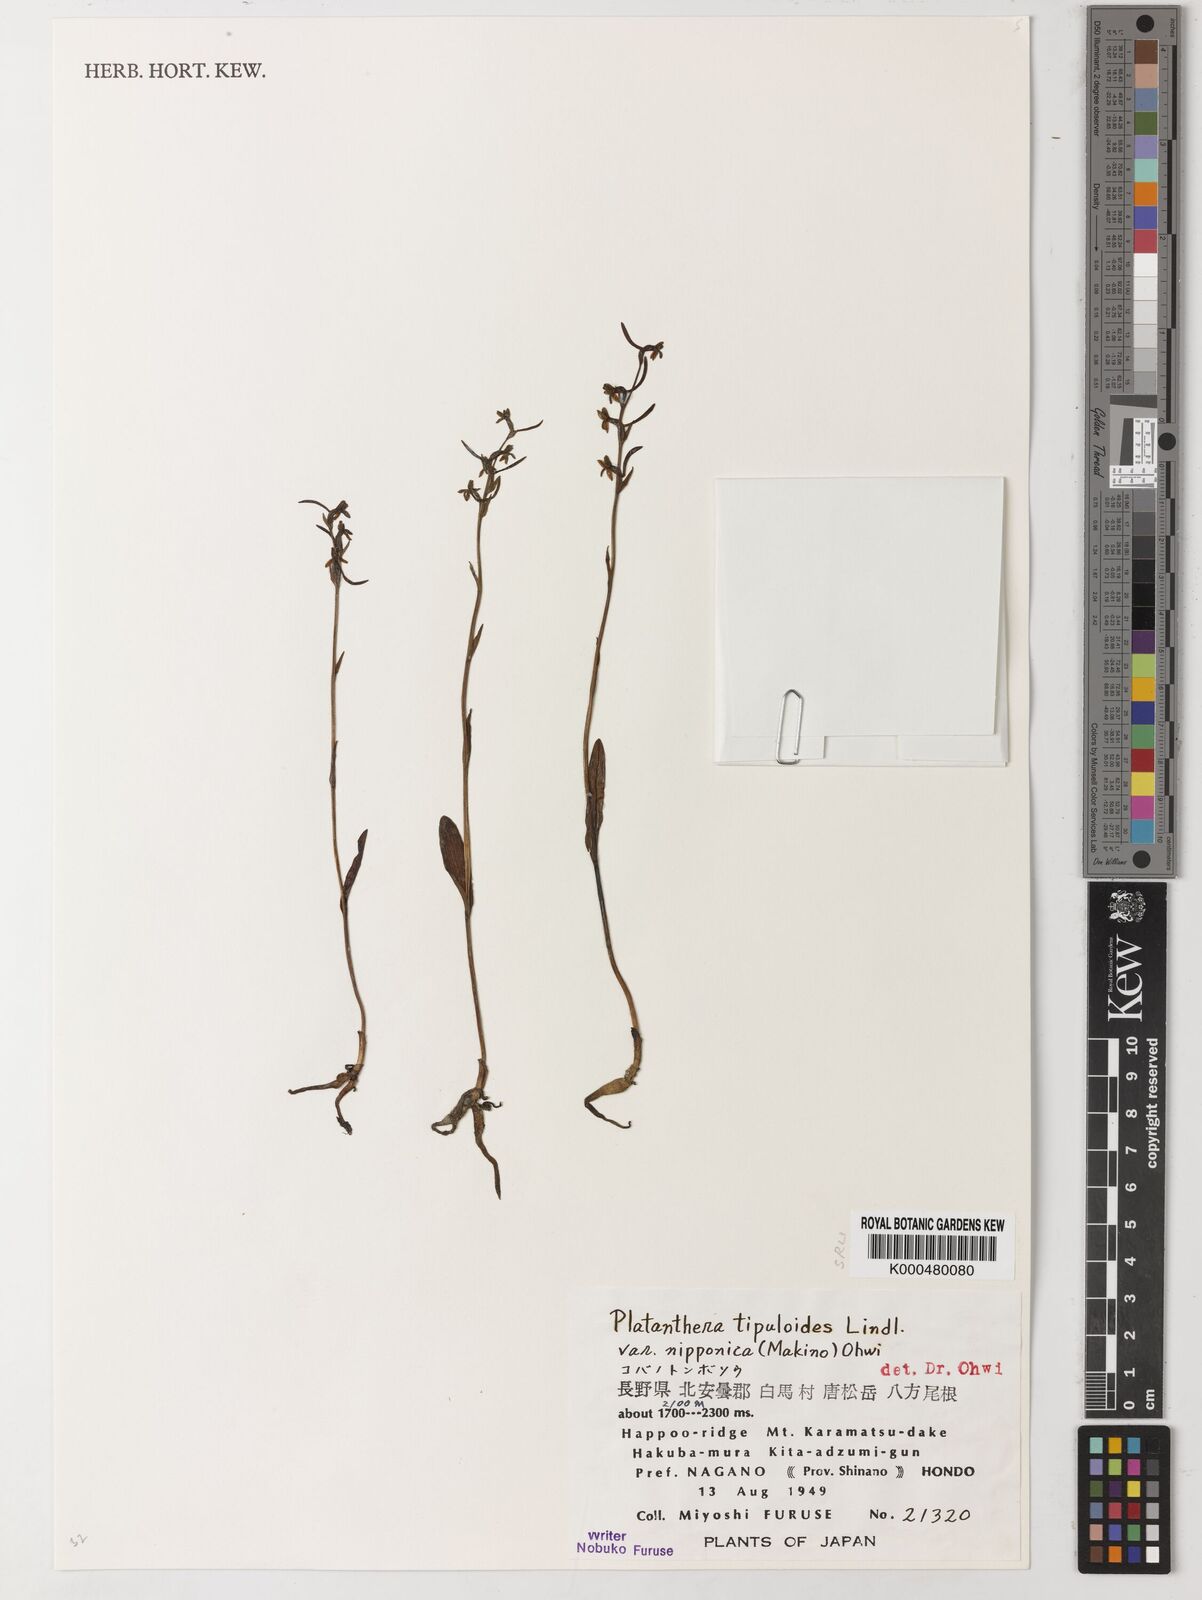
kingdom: Plantae
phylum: Tracheophyta
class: Liliopsida
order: Asparagales
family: Orchidaceae
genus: Platanthera
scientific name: Platanthera nipponica
